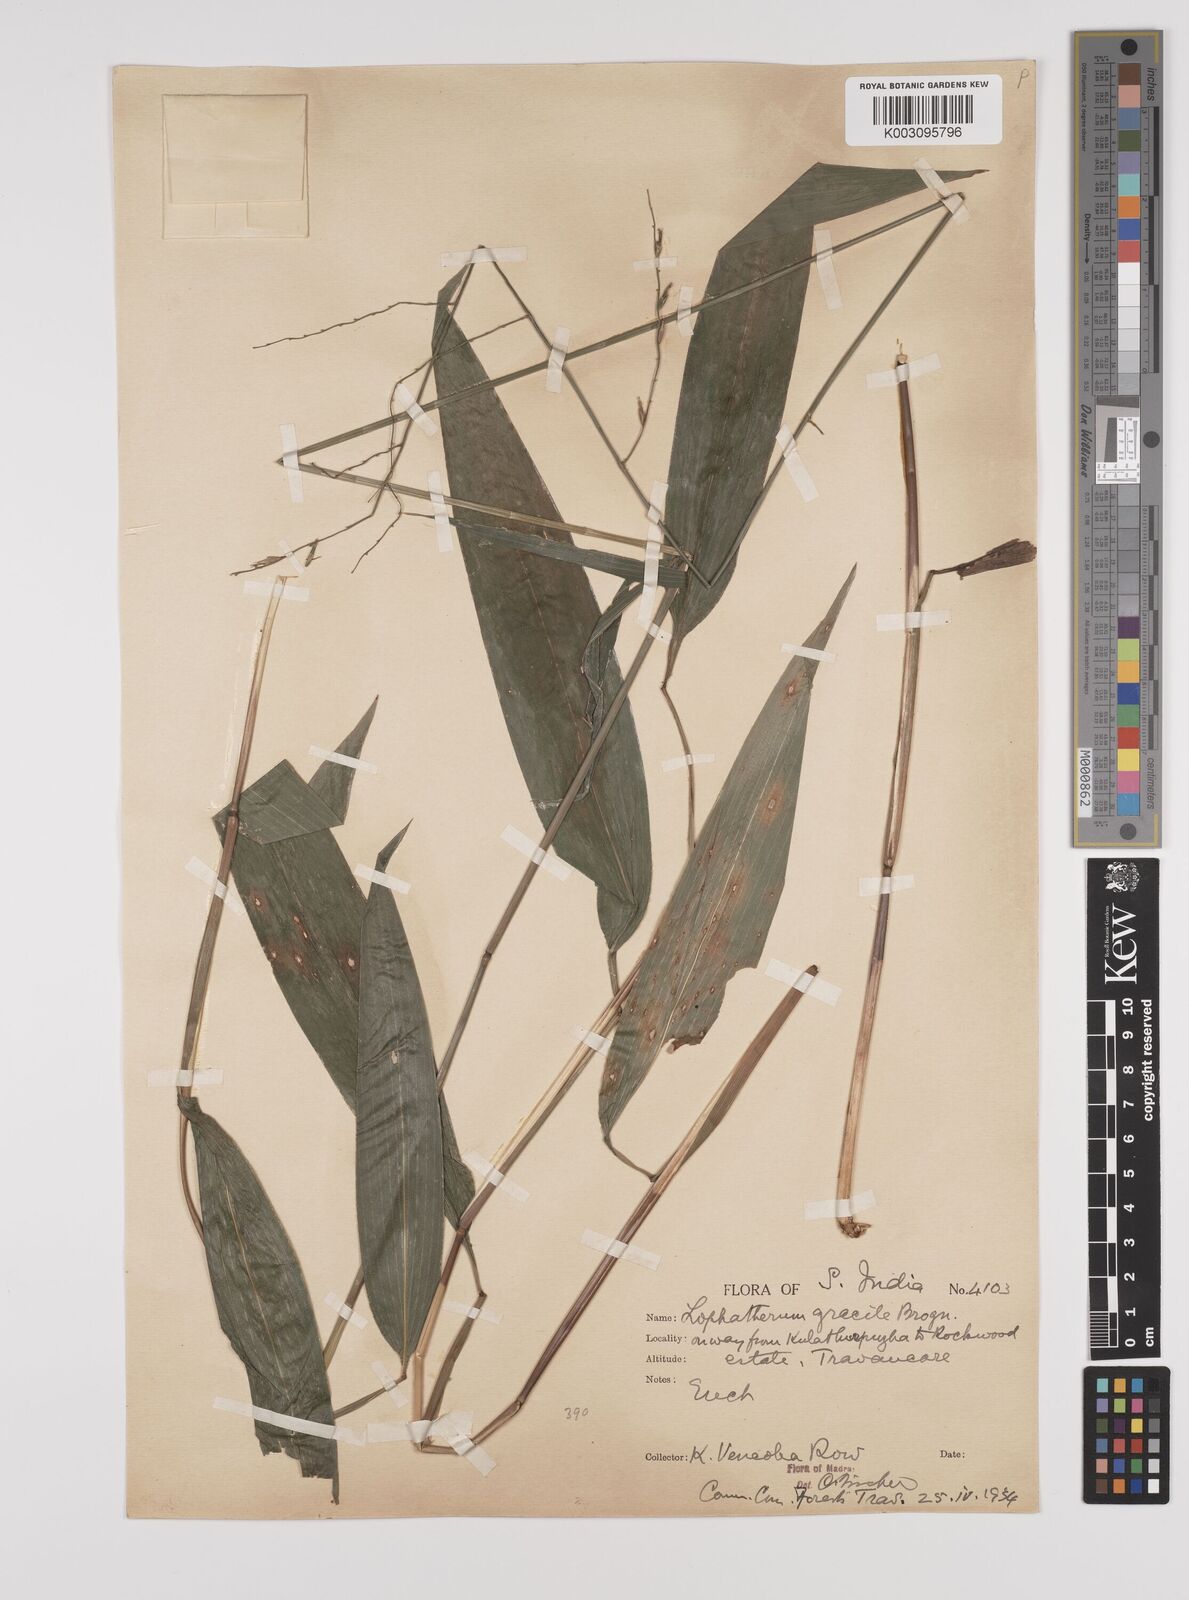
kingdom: Plantae
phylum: Tracheophyta
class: Liliopsida
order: Poales
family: Poaceae
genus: Lophatherum
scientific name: Lophatherum gracile
